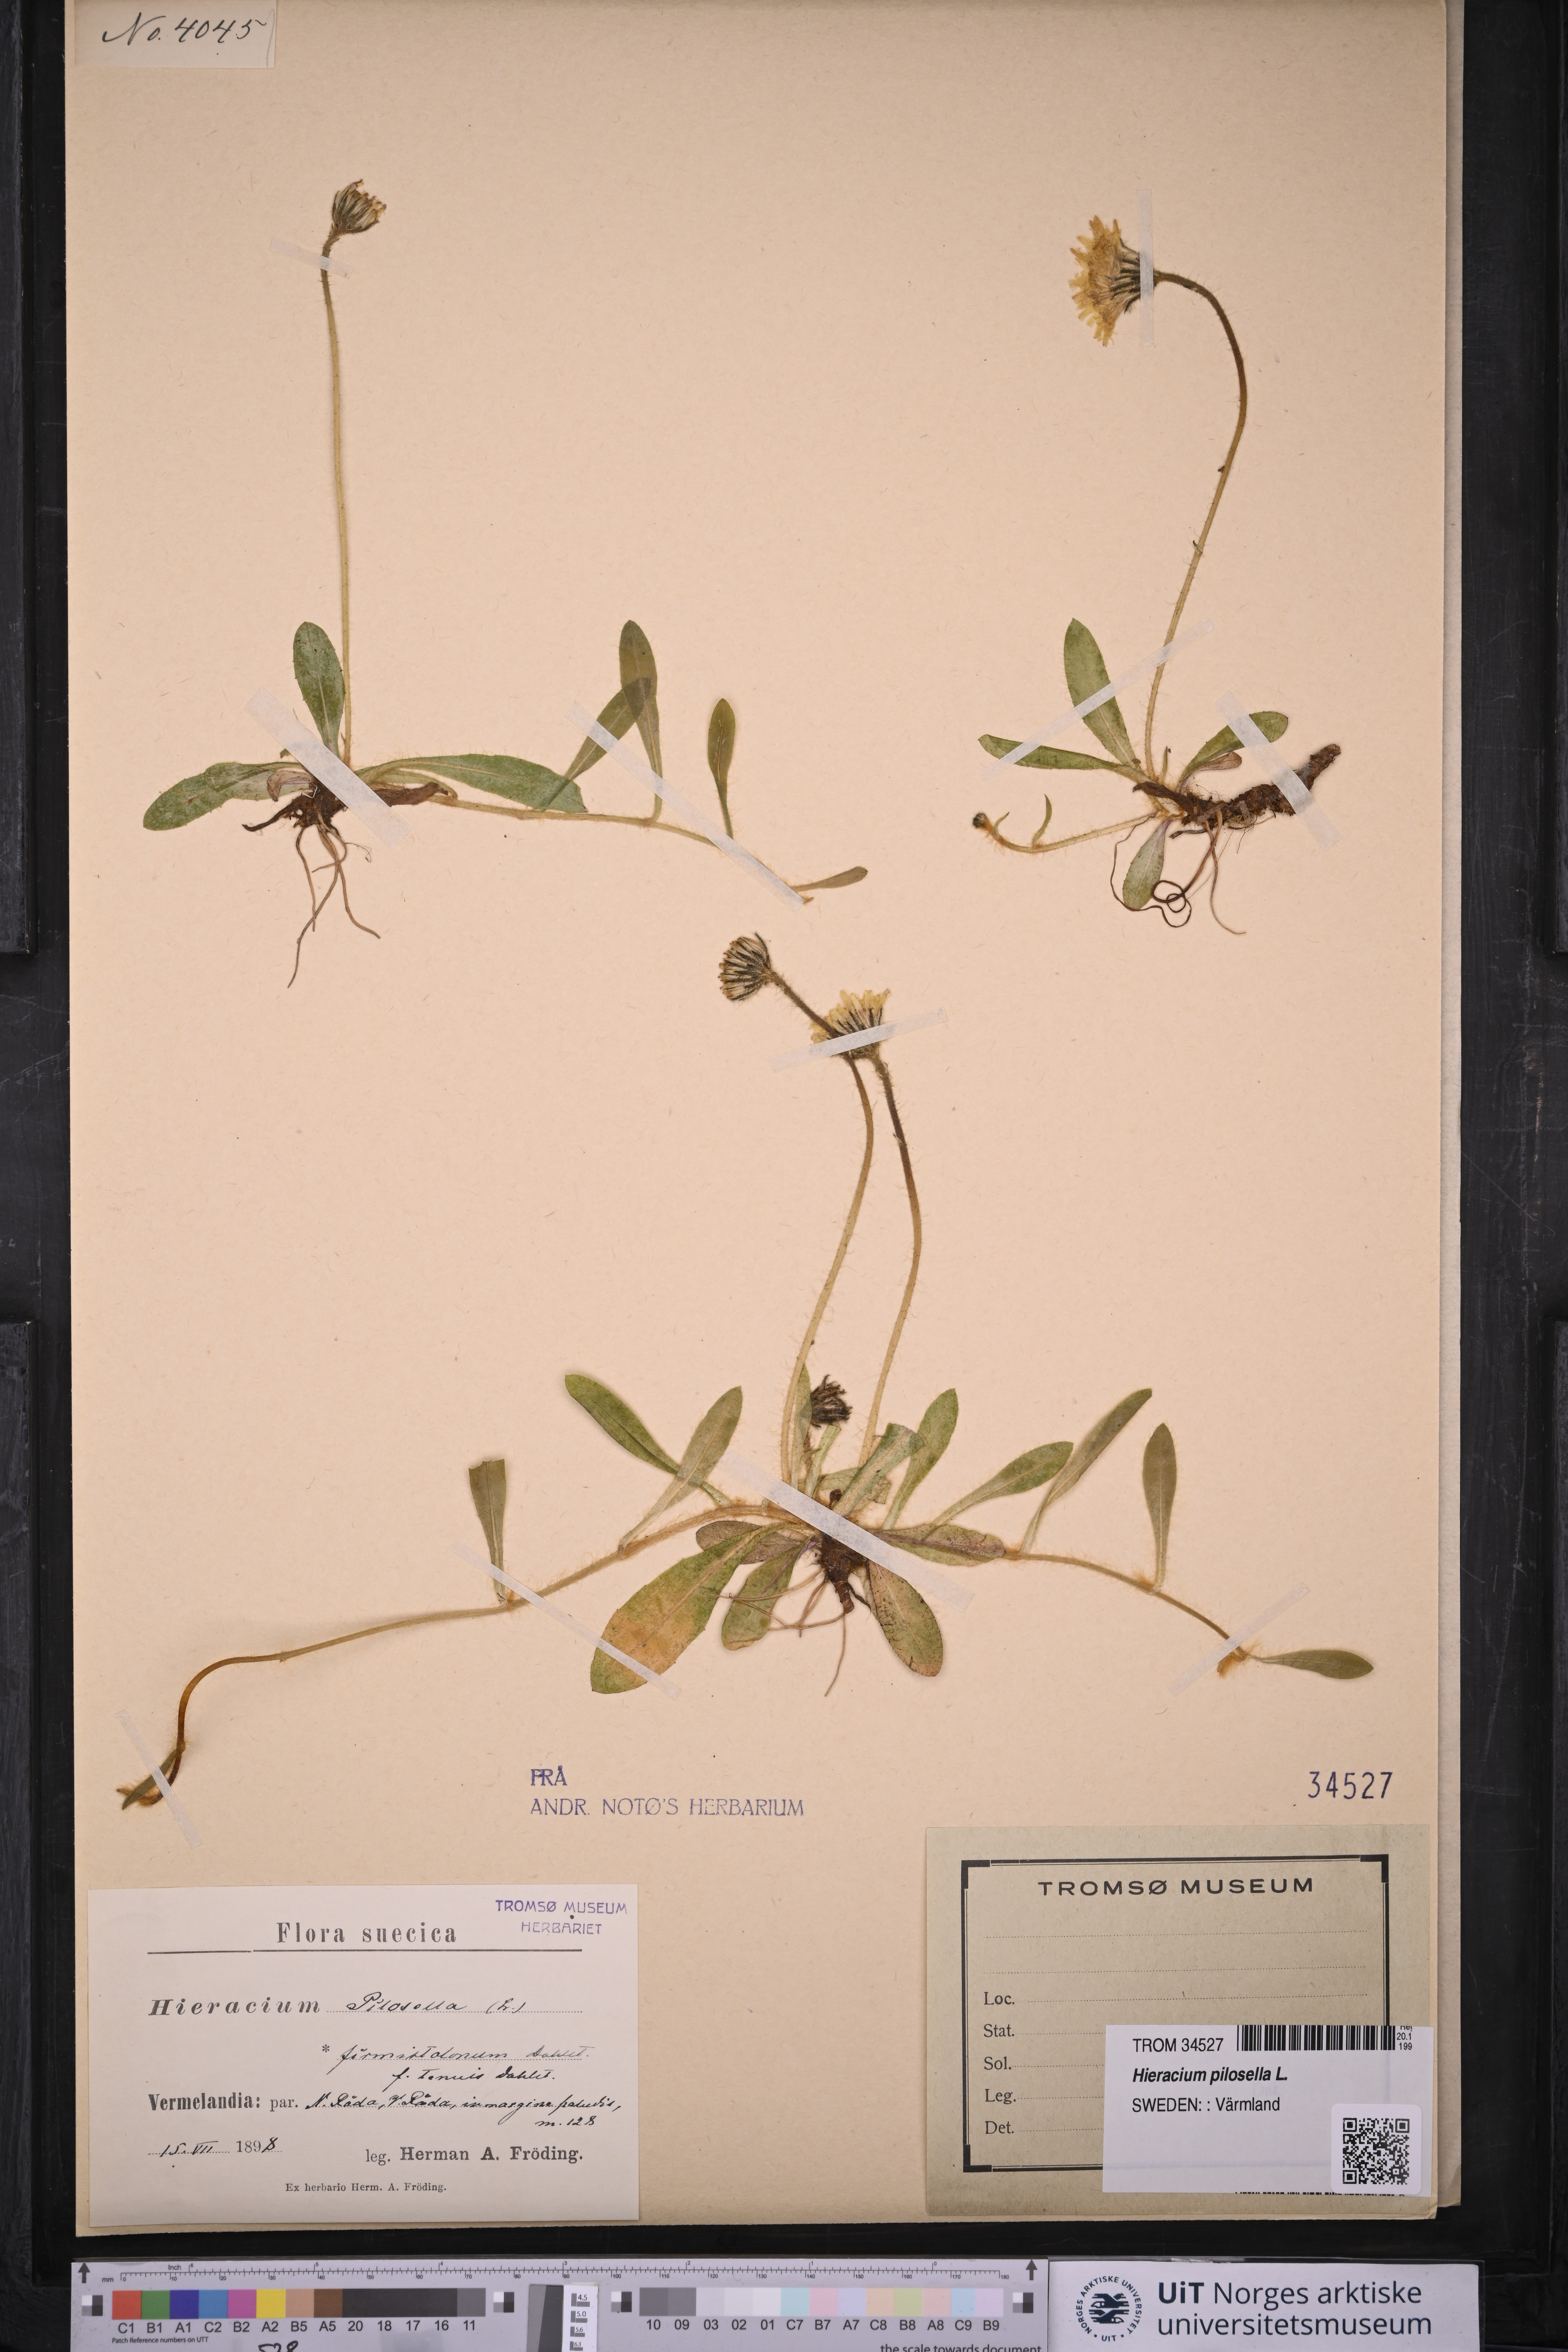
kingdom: Plantae
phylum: Tracheophyta
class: Magnoliopsida
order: Asterales
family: Asteraceae
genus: Pilosella
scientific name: Pilosella officinarum
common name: Mouse-ear hawkweed
